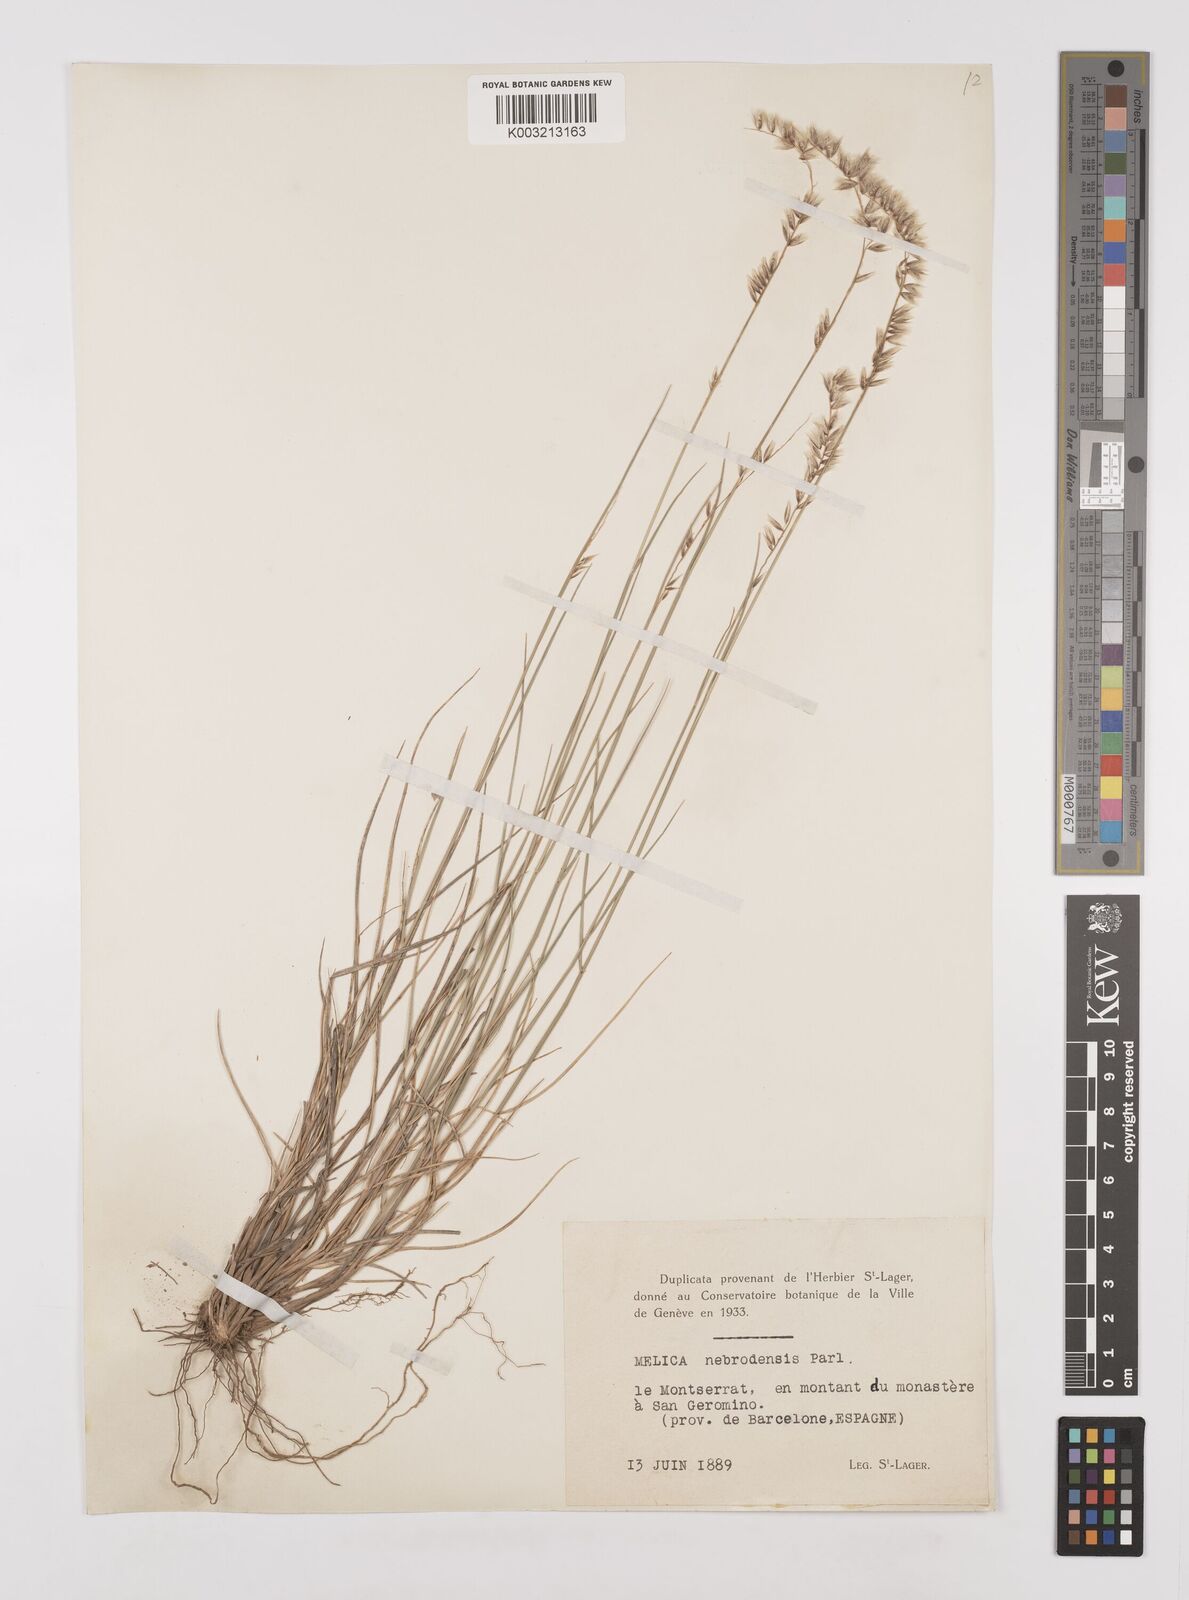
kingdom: Plantae
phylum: Tracheophyta
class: Liliopsida
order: Poales
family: Poaceae
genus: Melica
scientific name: Melica ciliata
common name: Hairy melicgrass
